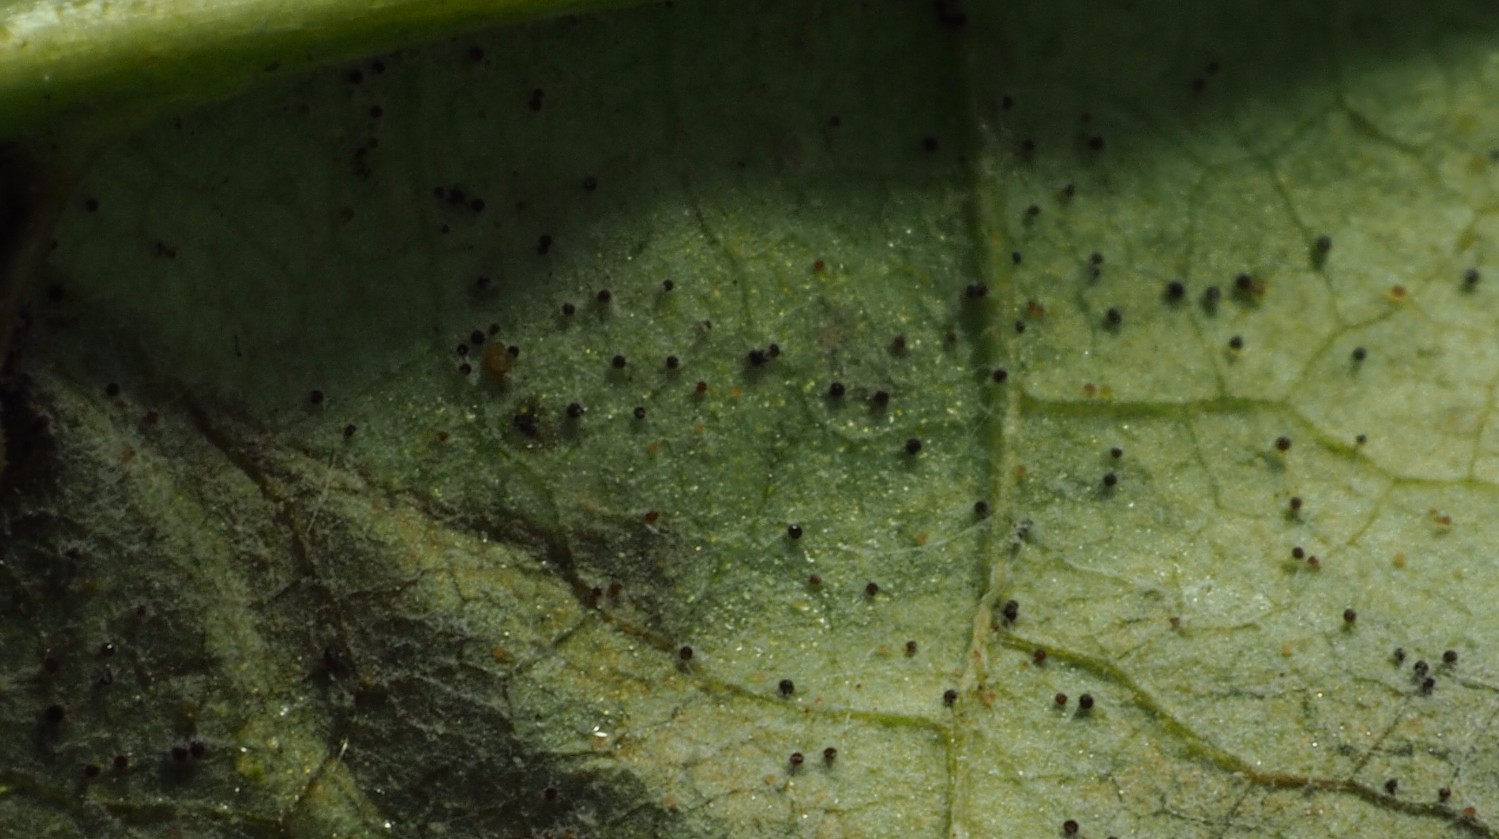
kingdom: Fungi
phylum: Ascomycota
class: Leotiomycetes
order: Helotiales
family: Erysiphaceae
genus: Golovinomyces
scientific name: Golovinomyces depressus
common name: Burdock mildew
